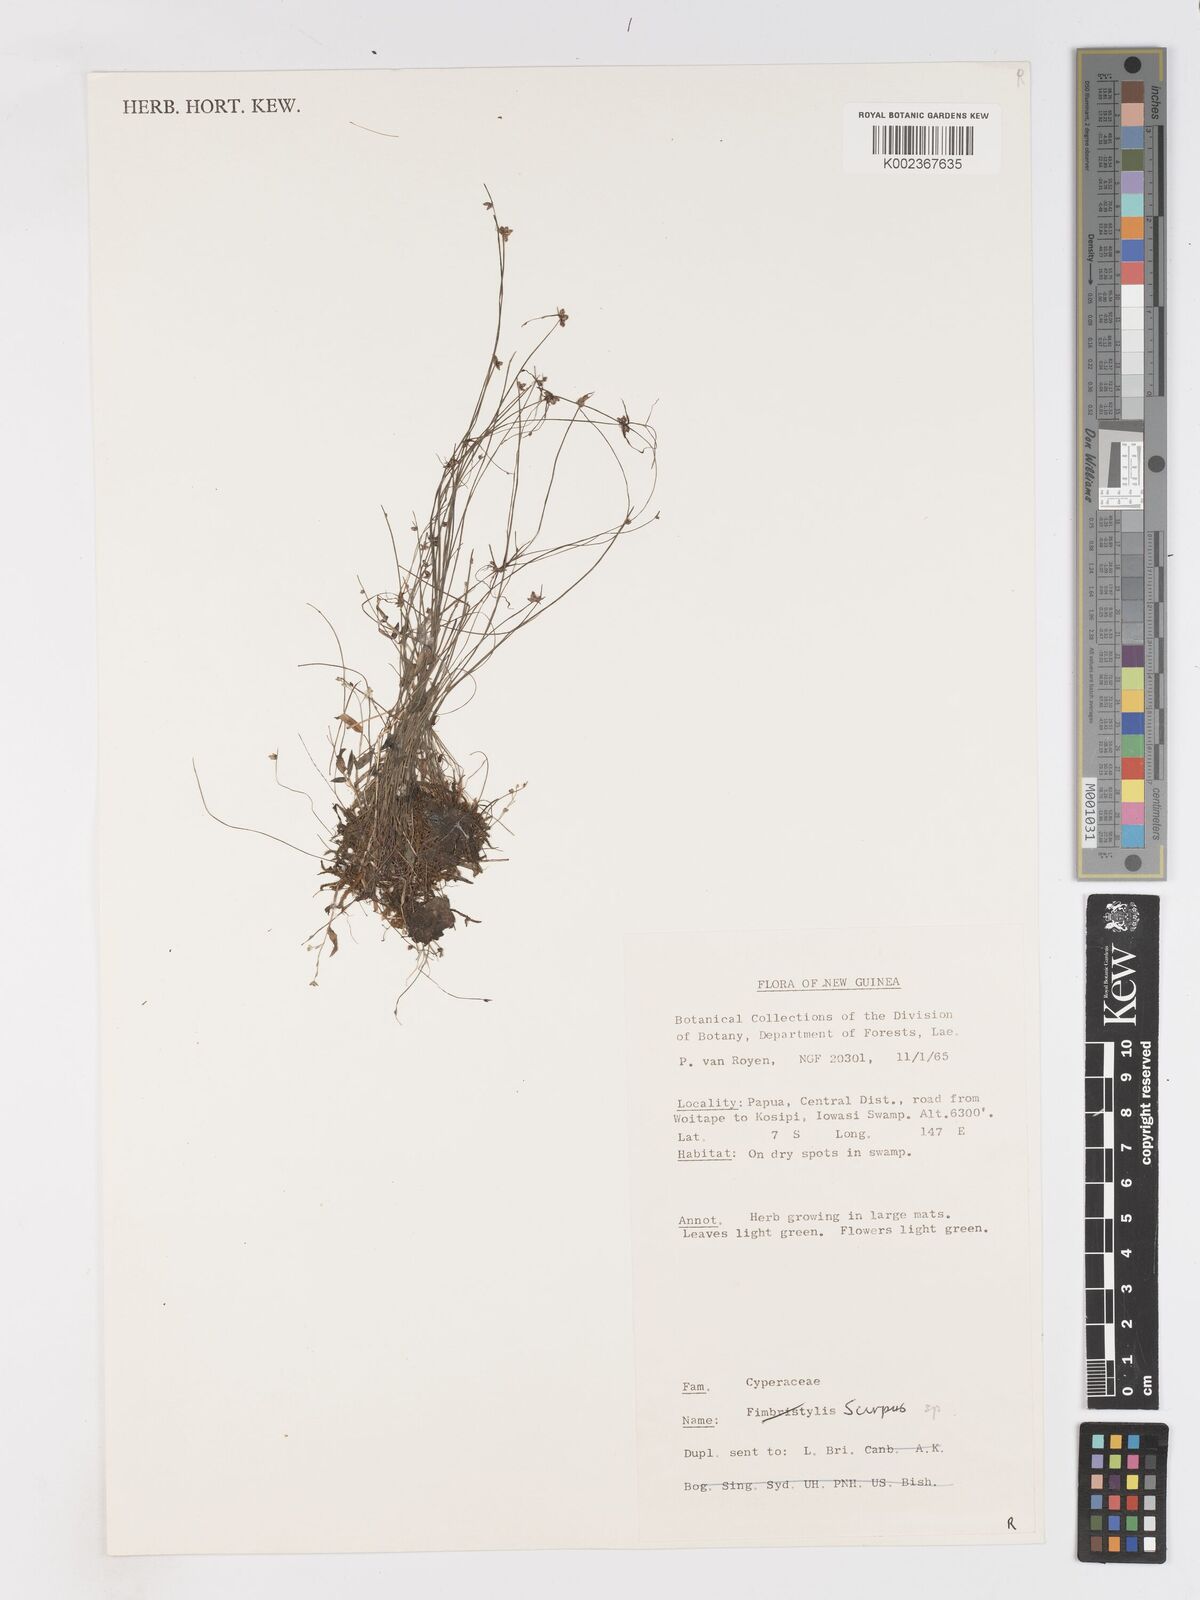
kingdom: Plantae
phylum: Tracheophyta
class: Liliopsida
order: Poales
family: Cyperaceae
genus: Isolepis
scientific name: Isolepis habra
